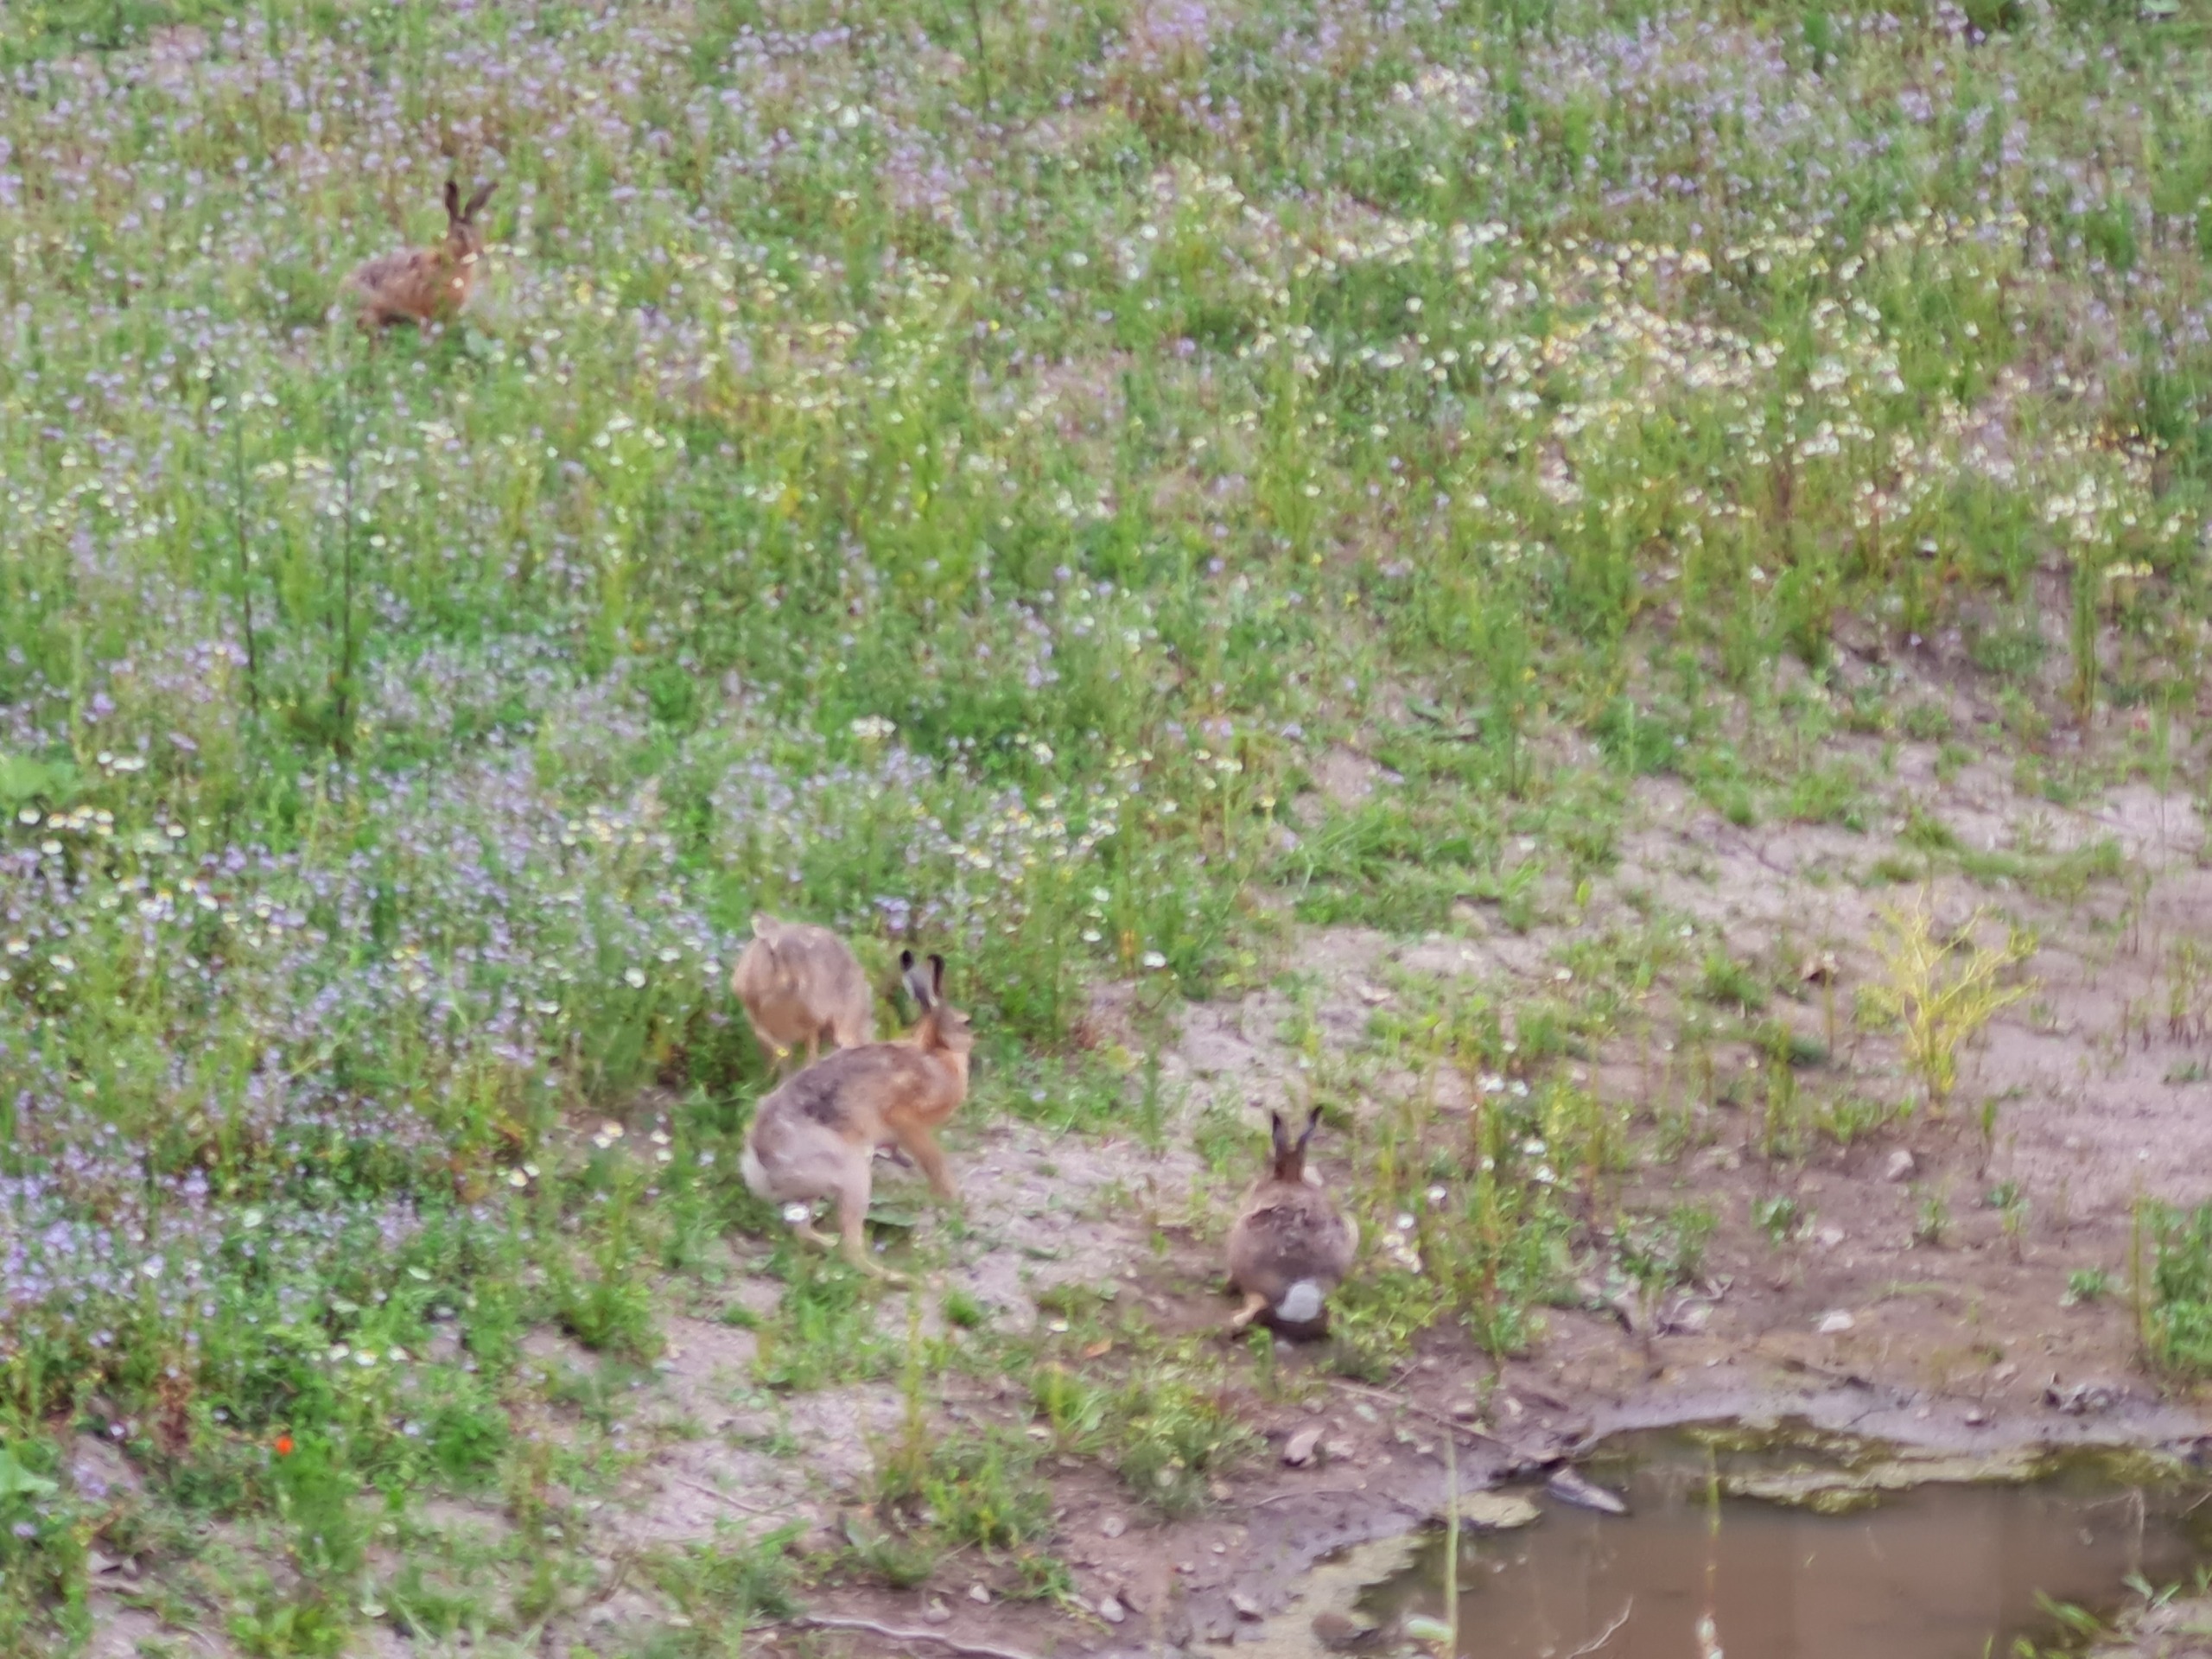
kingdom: Animalia
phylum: Chordata
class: Mammalia
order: Lagomorpha
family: Leporidae
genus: Lepus
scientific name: Lepus europaeus
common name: Hare
